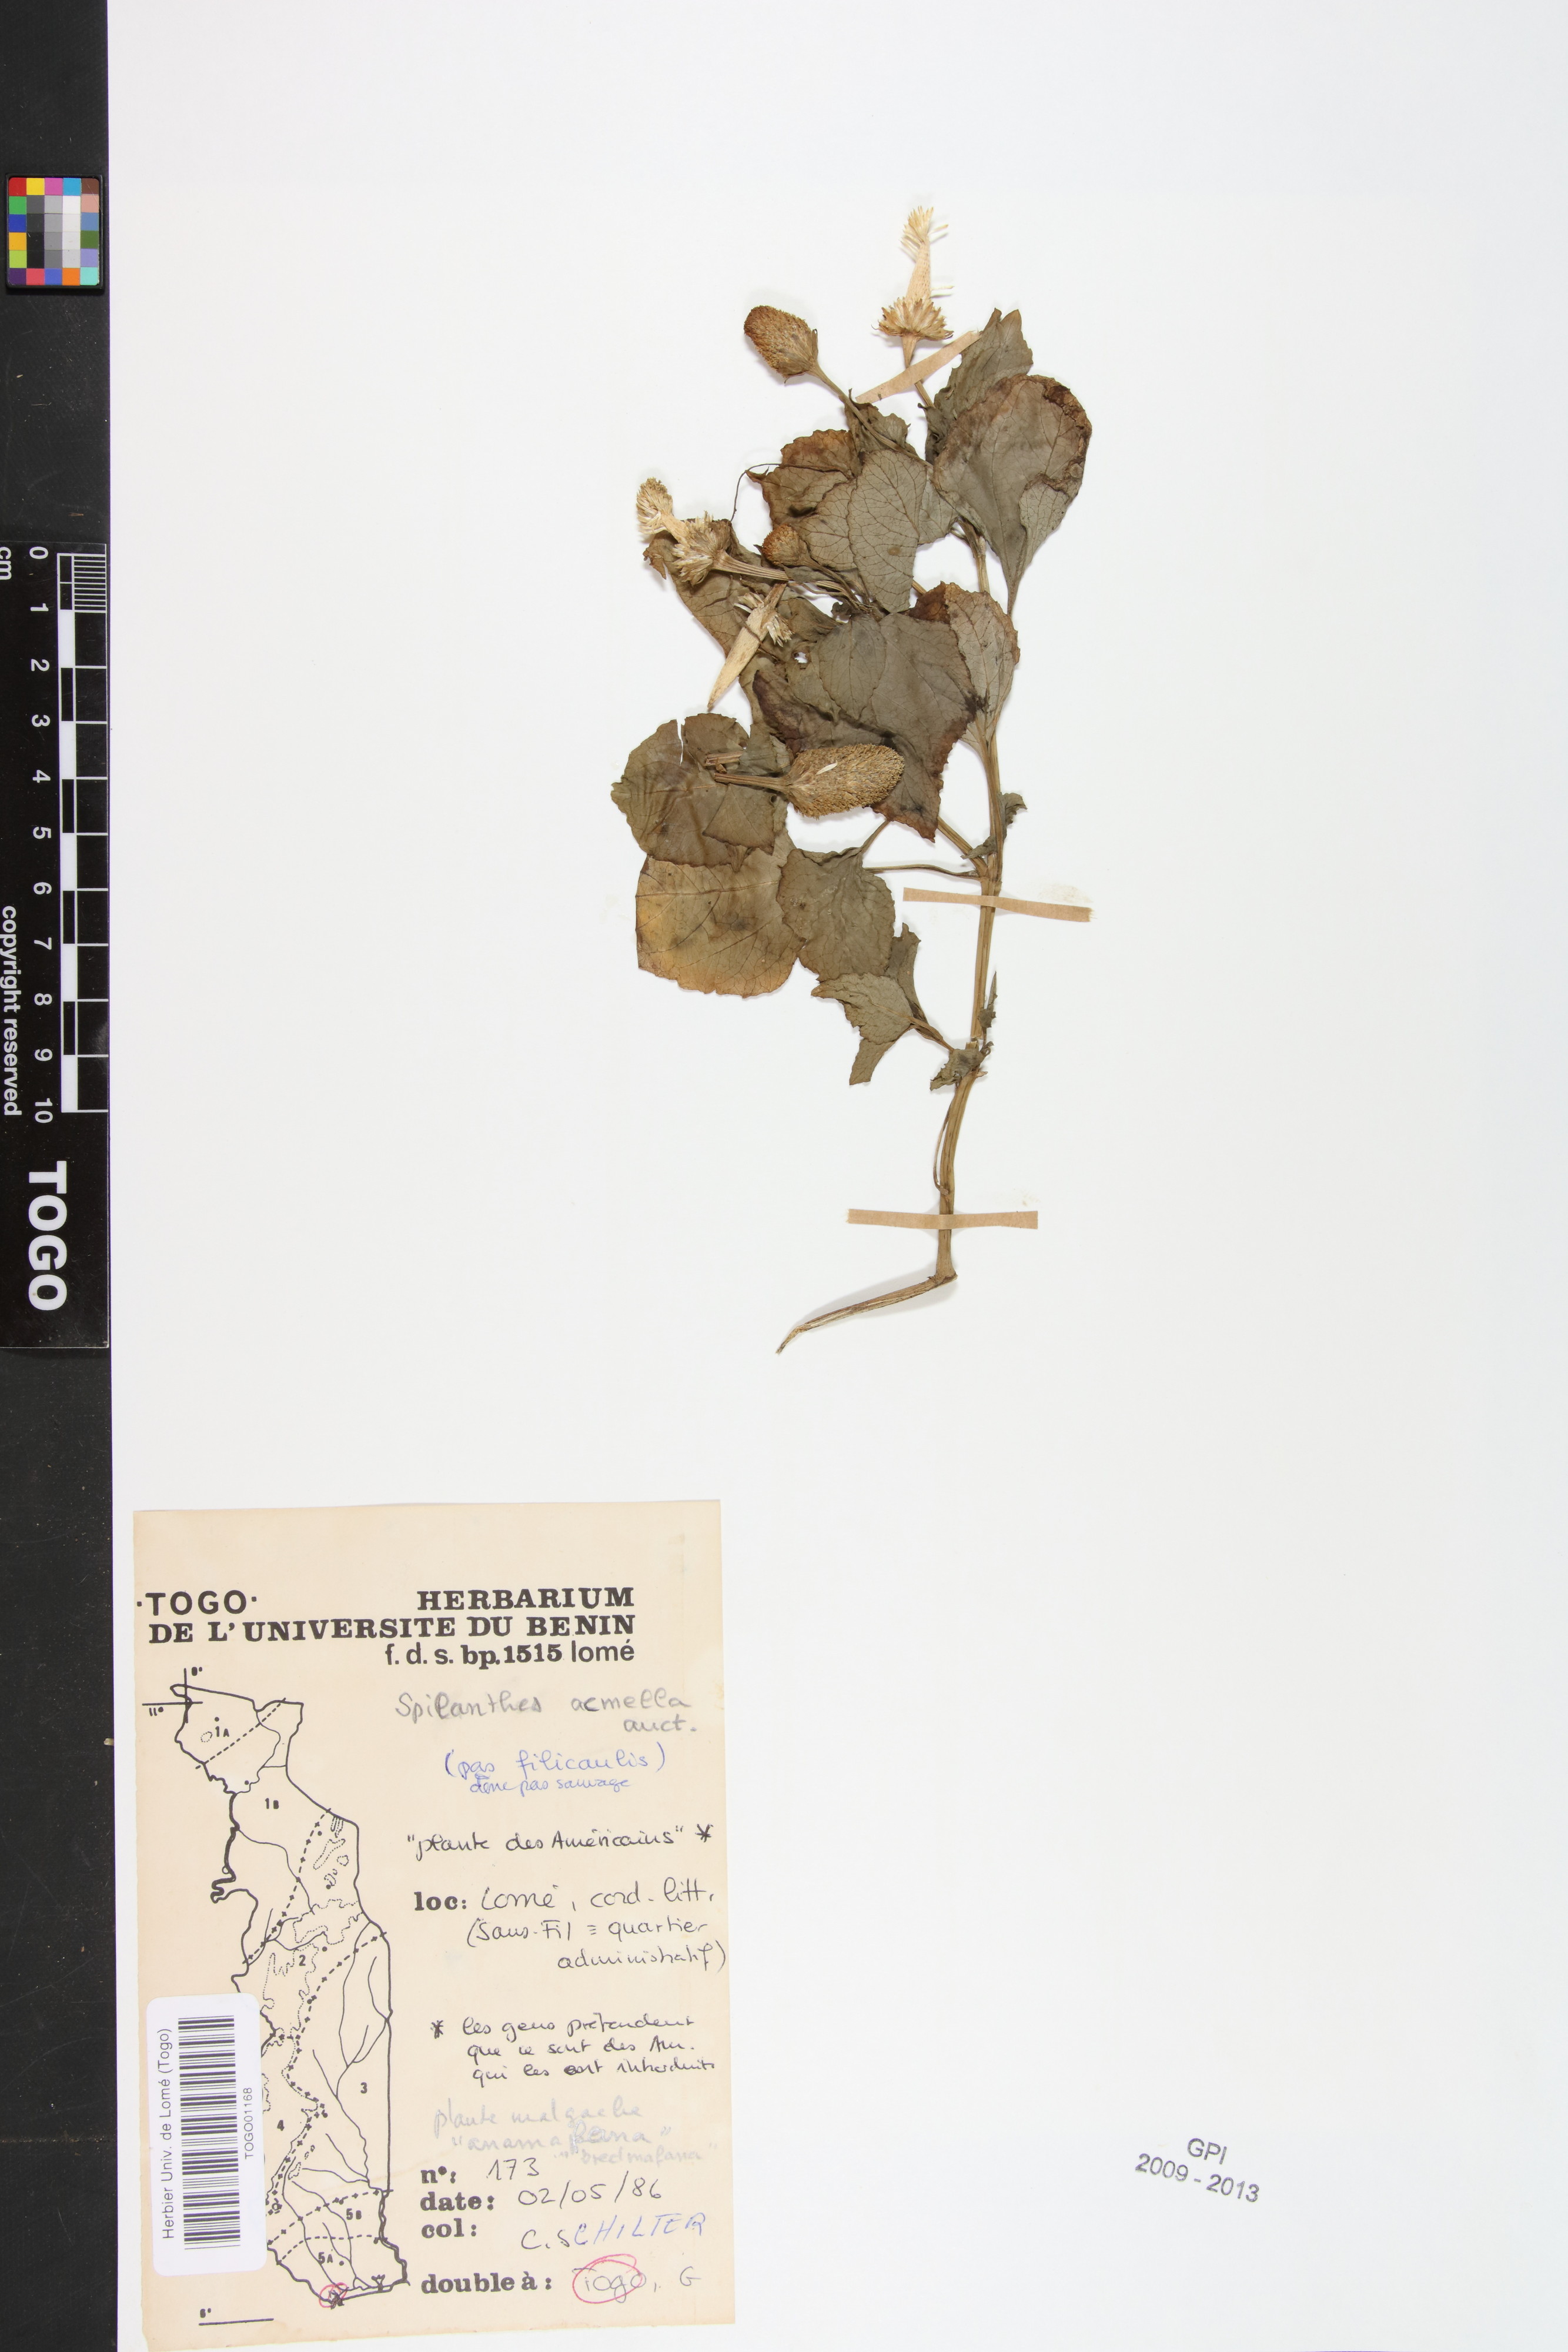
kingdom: Plantae
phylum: Tracheophyta
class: Magnoliopsida
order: Asterales
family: Asteraceae
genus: Spilanthes
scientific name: Spilanthes acmella
